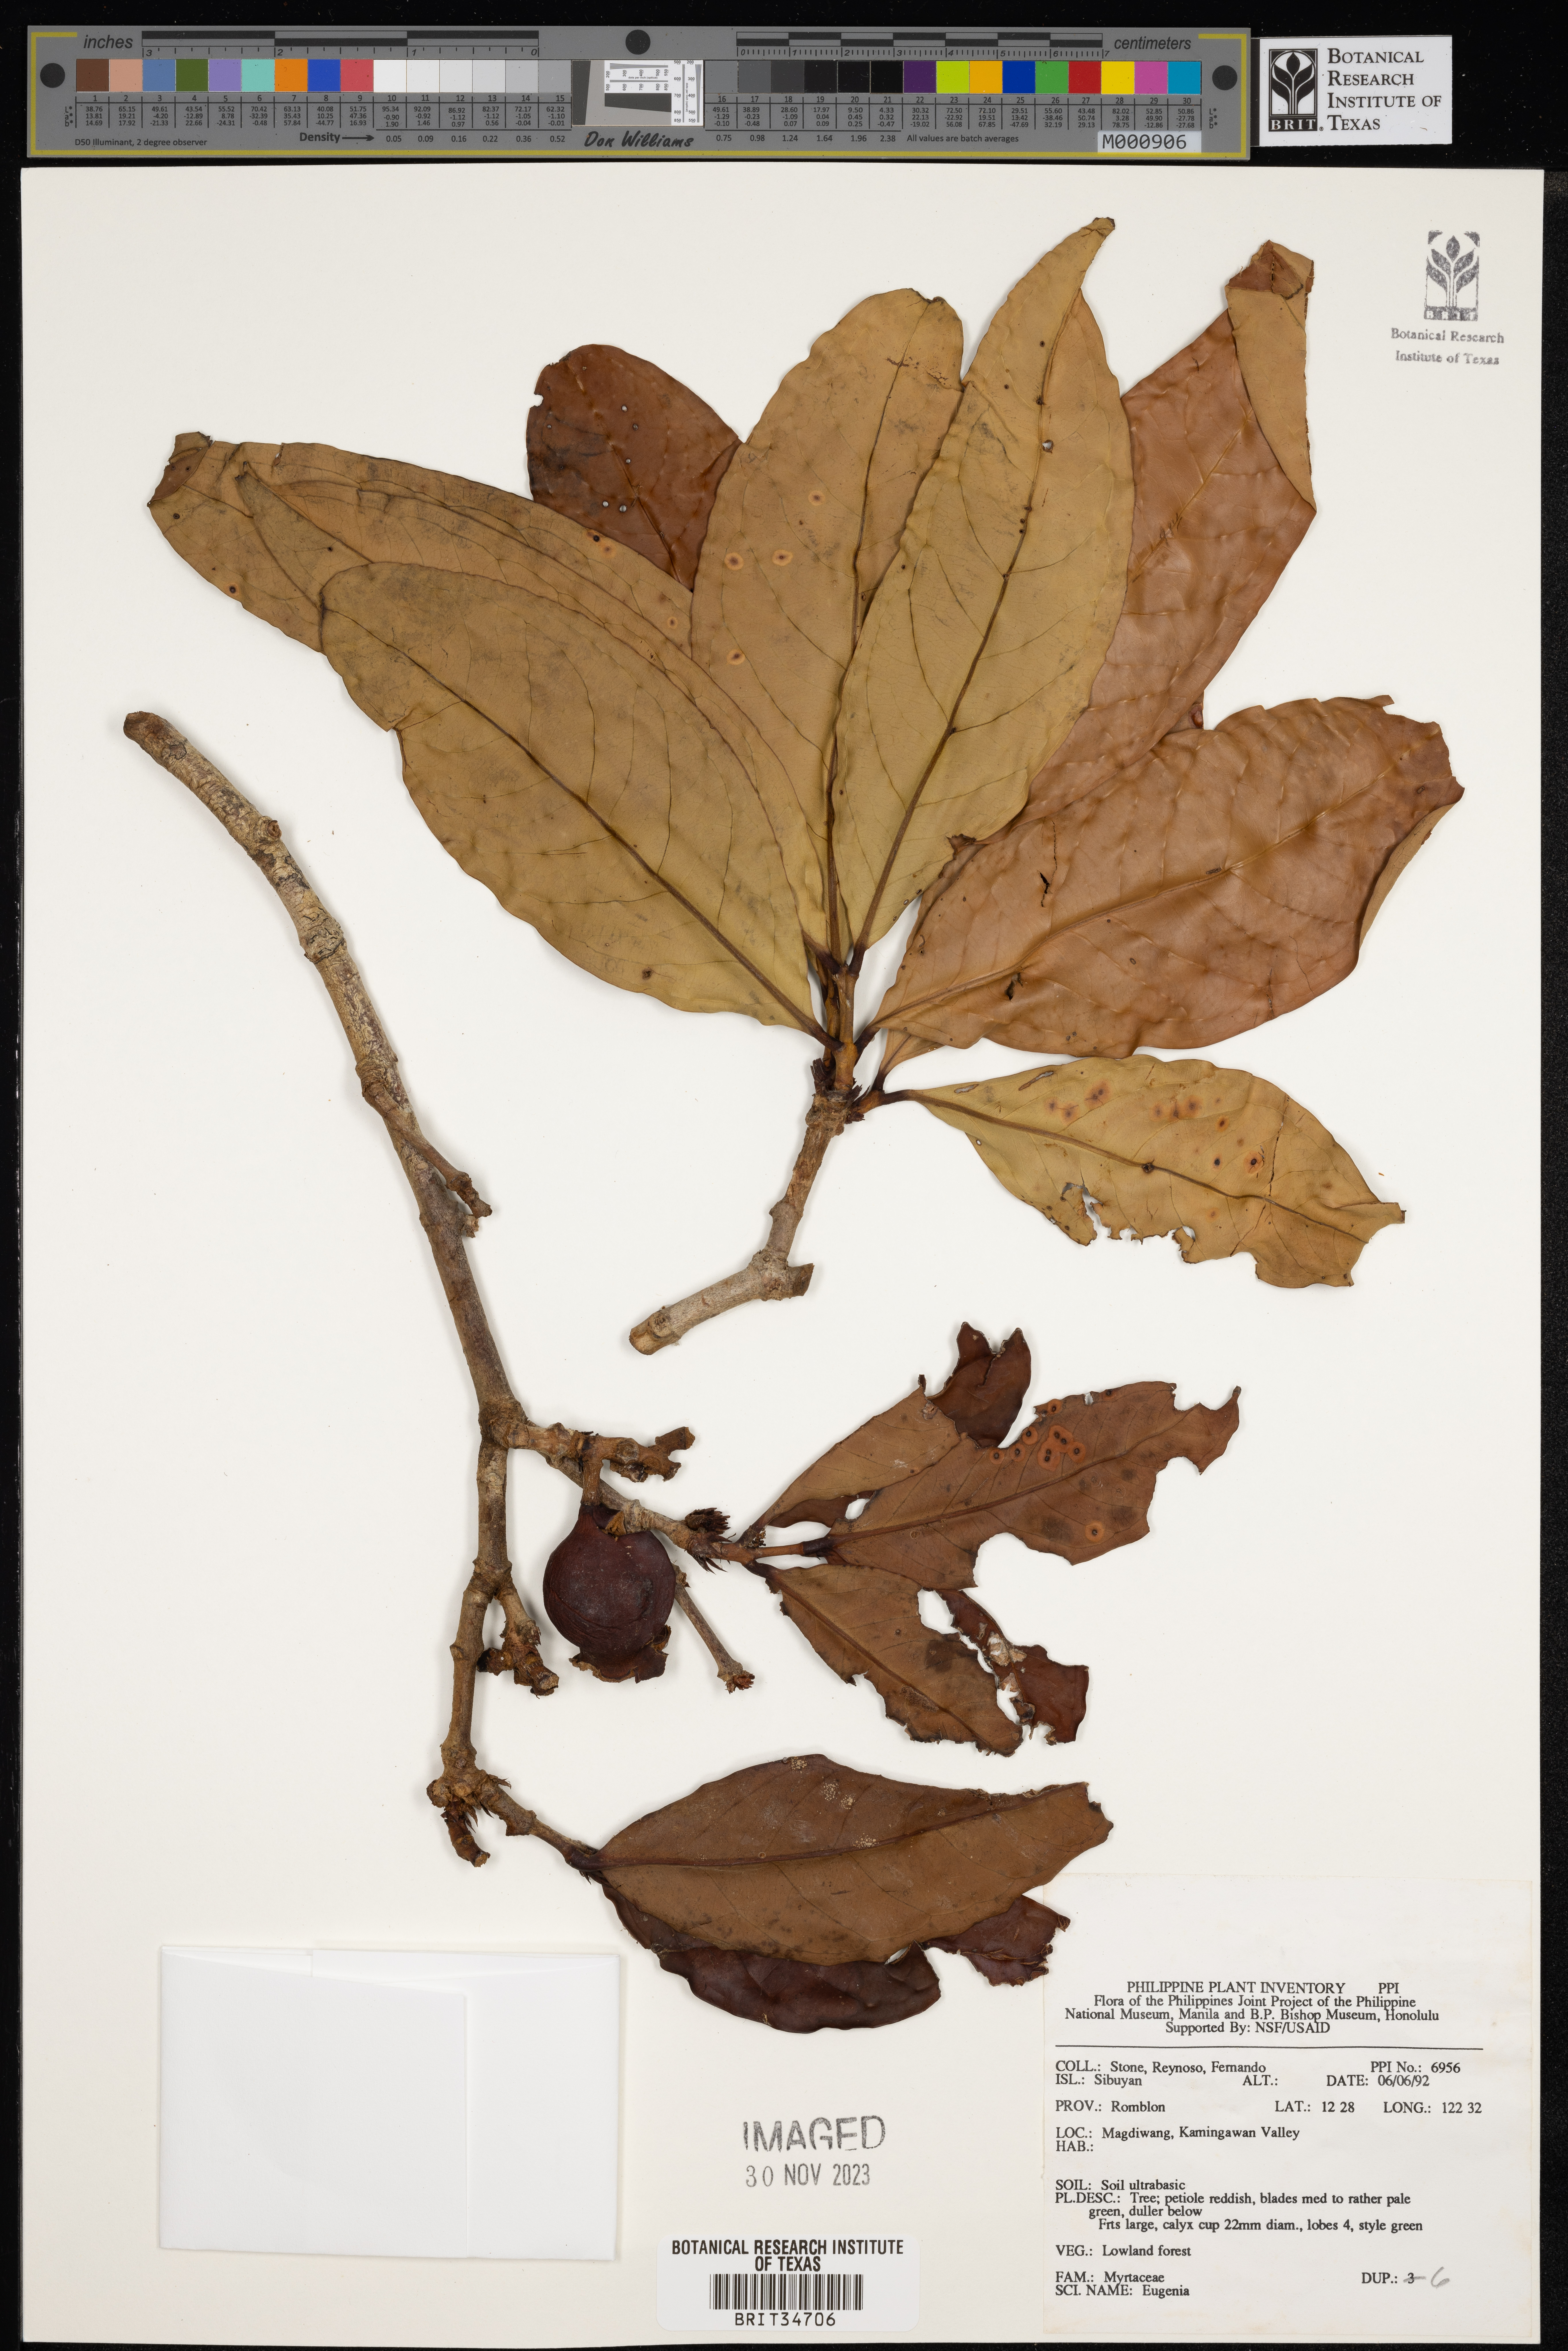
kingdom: Plantae
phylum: Tracheophyta
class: Magnoliopsida
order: Myrtales
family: Myrtaceae
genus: Eugenia
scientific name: Eugenia
